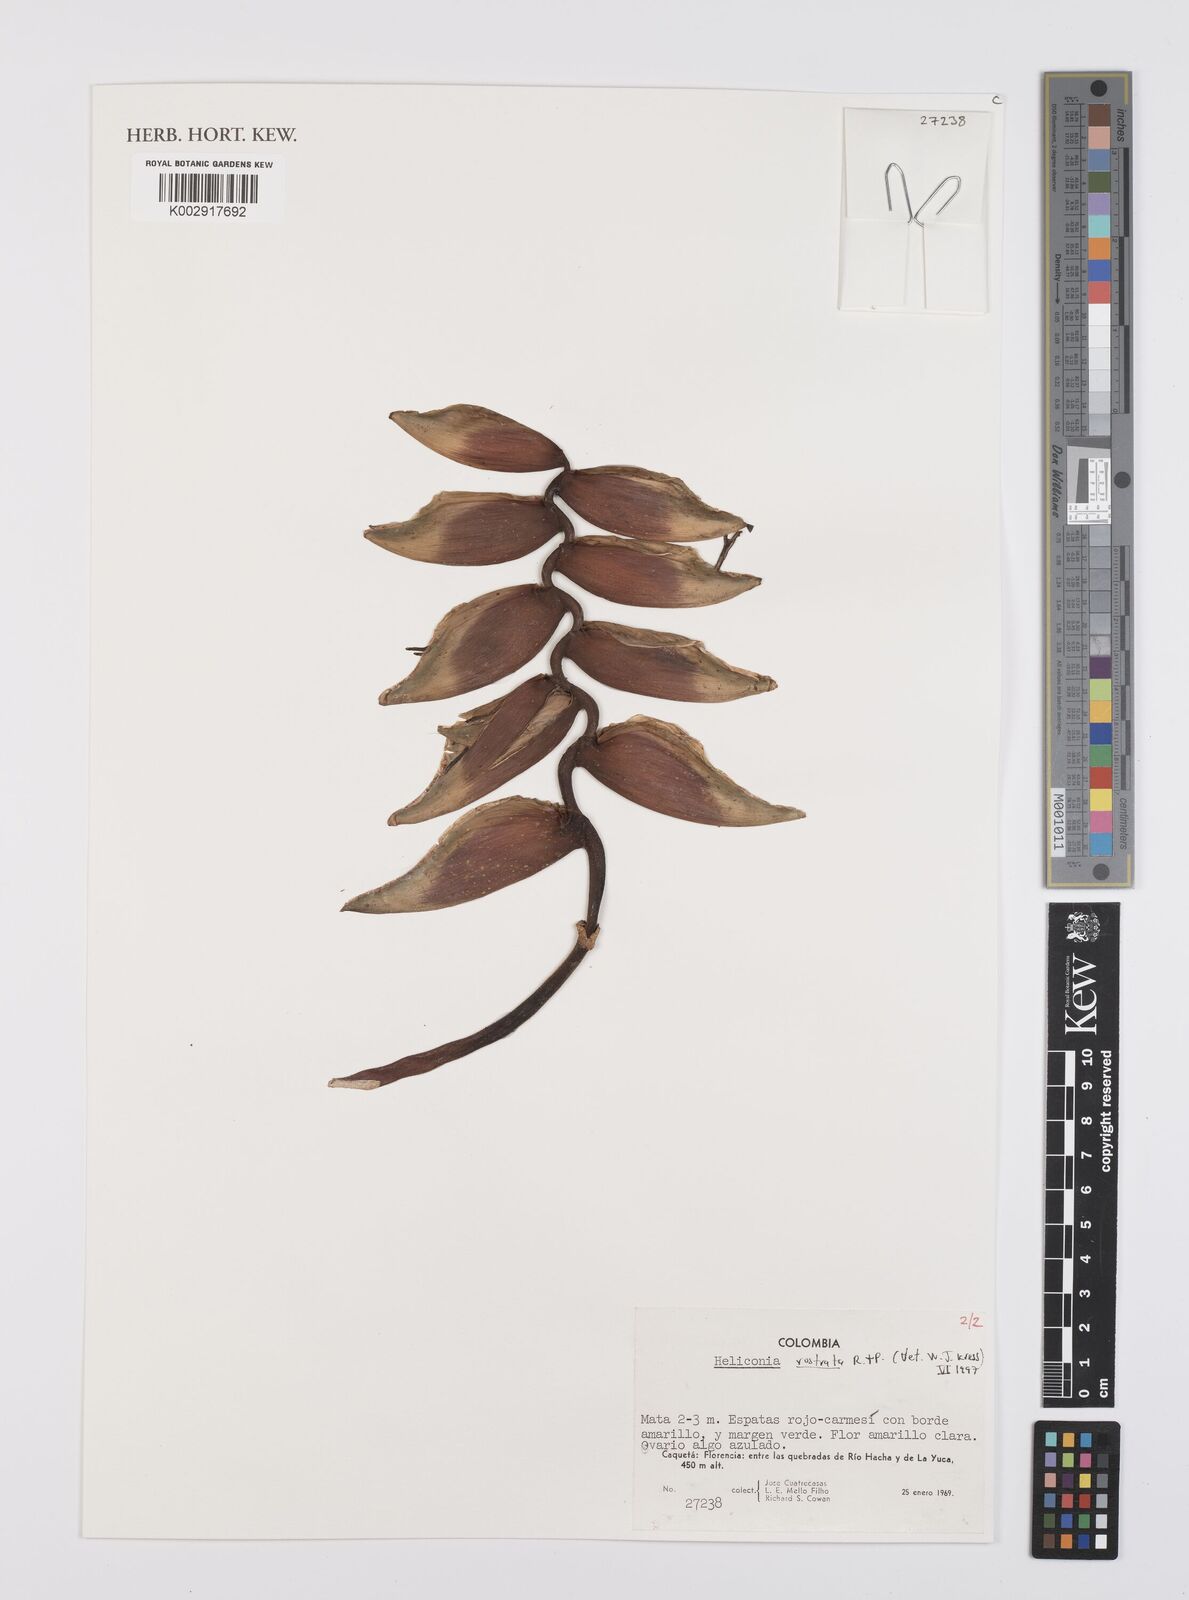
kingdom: Plantae
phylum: Tracheophyta
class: Liliopsida
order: Zingiberales
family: Heliconiaceae
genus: Heliconia
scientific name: Heliconia rostrata
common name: False bird of paradise
